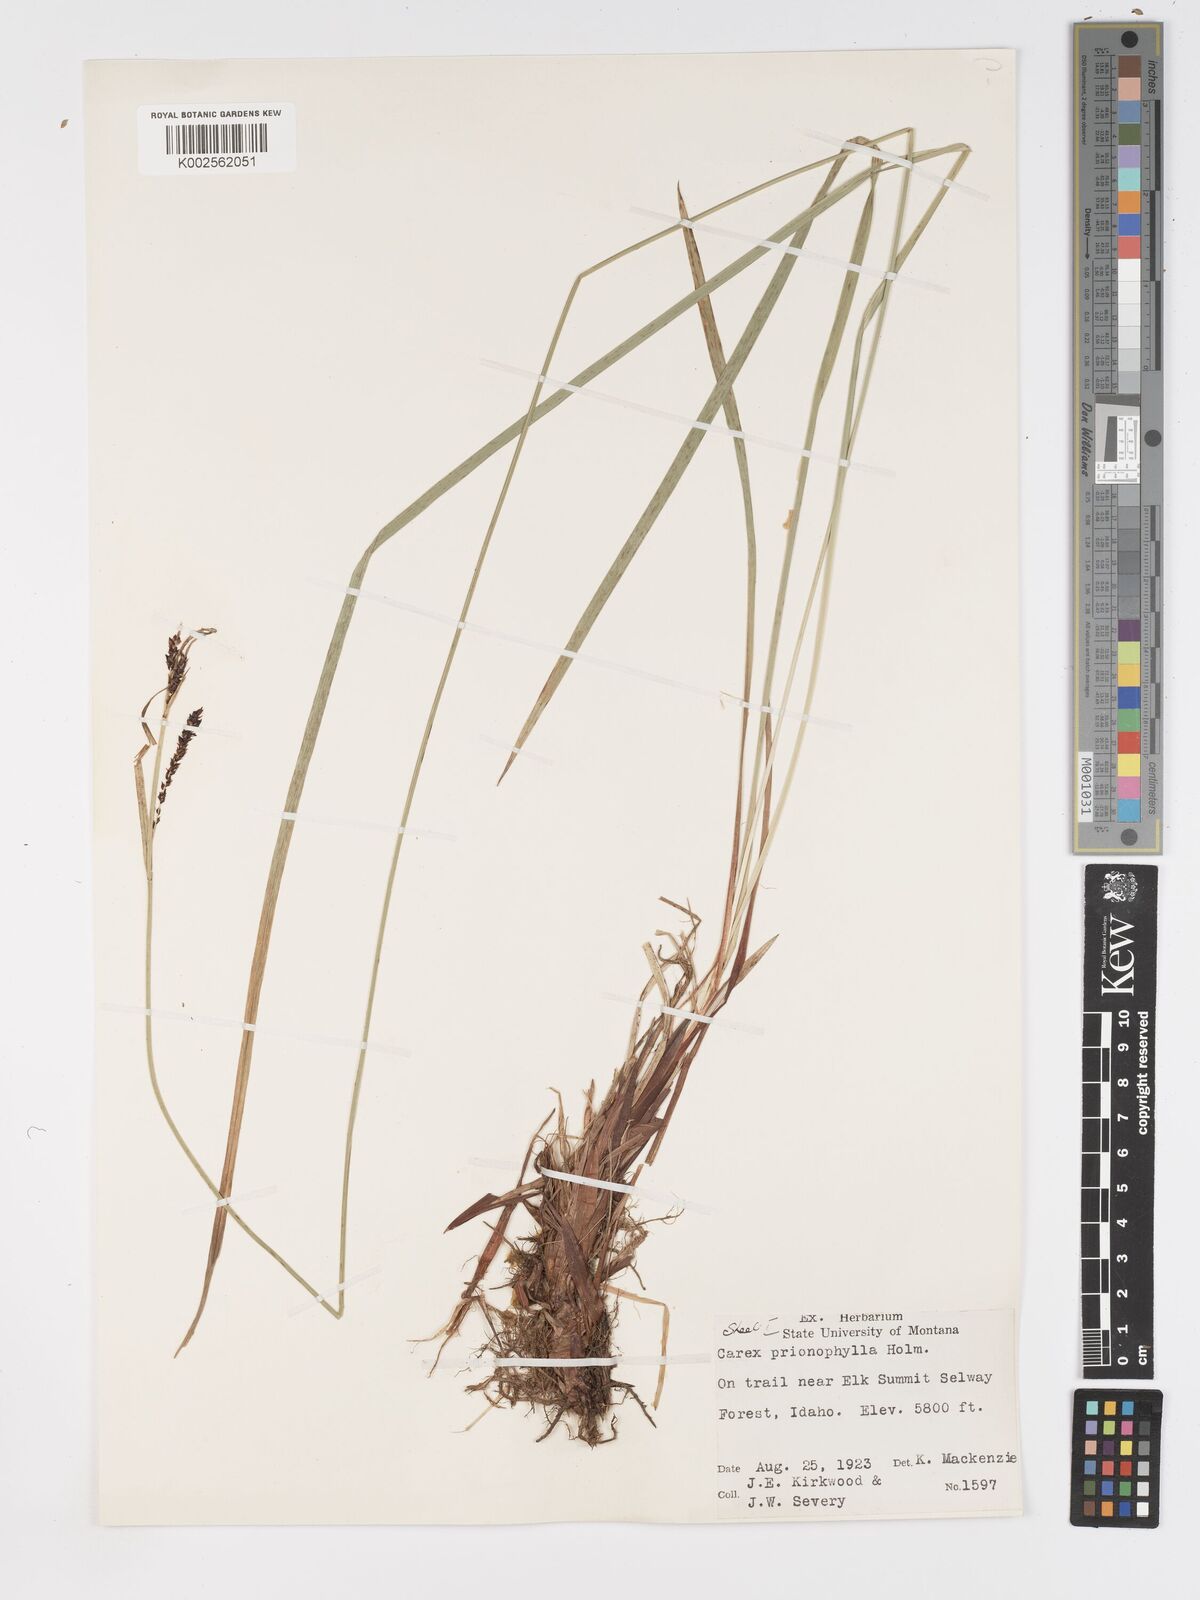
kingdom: Plantae
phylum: Tracheophyta
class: Liliopsida
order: Poales
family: Cyperaceae
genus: Carex
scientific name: Carex scopulorum
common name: Holm's rocky mountain sedge
